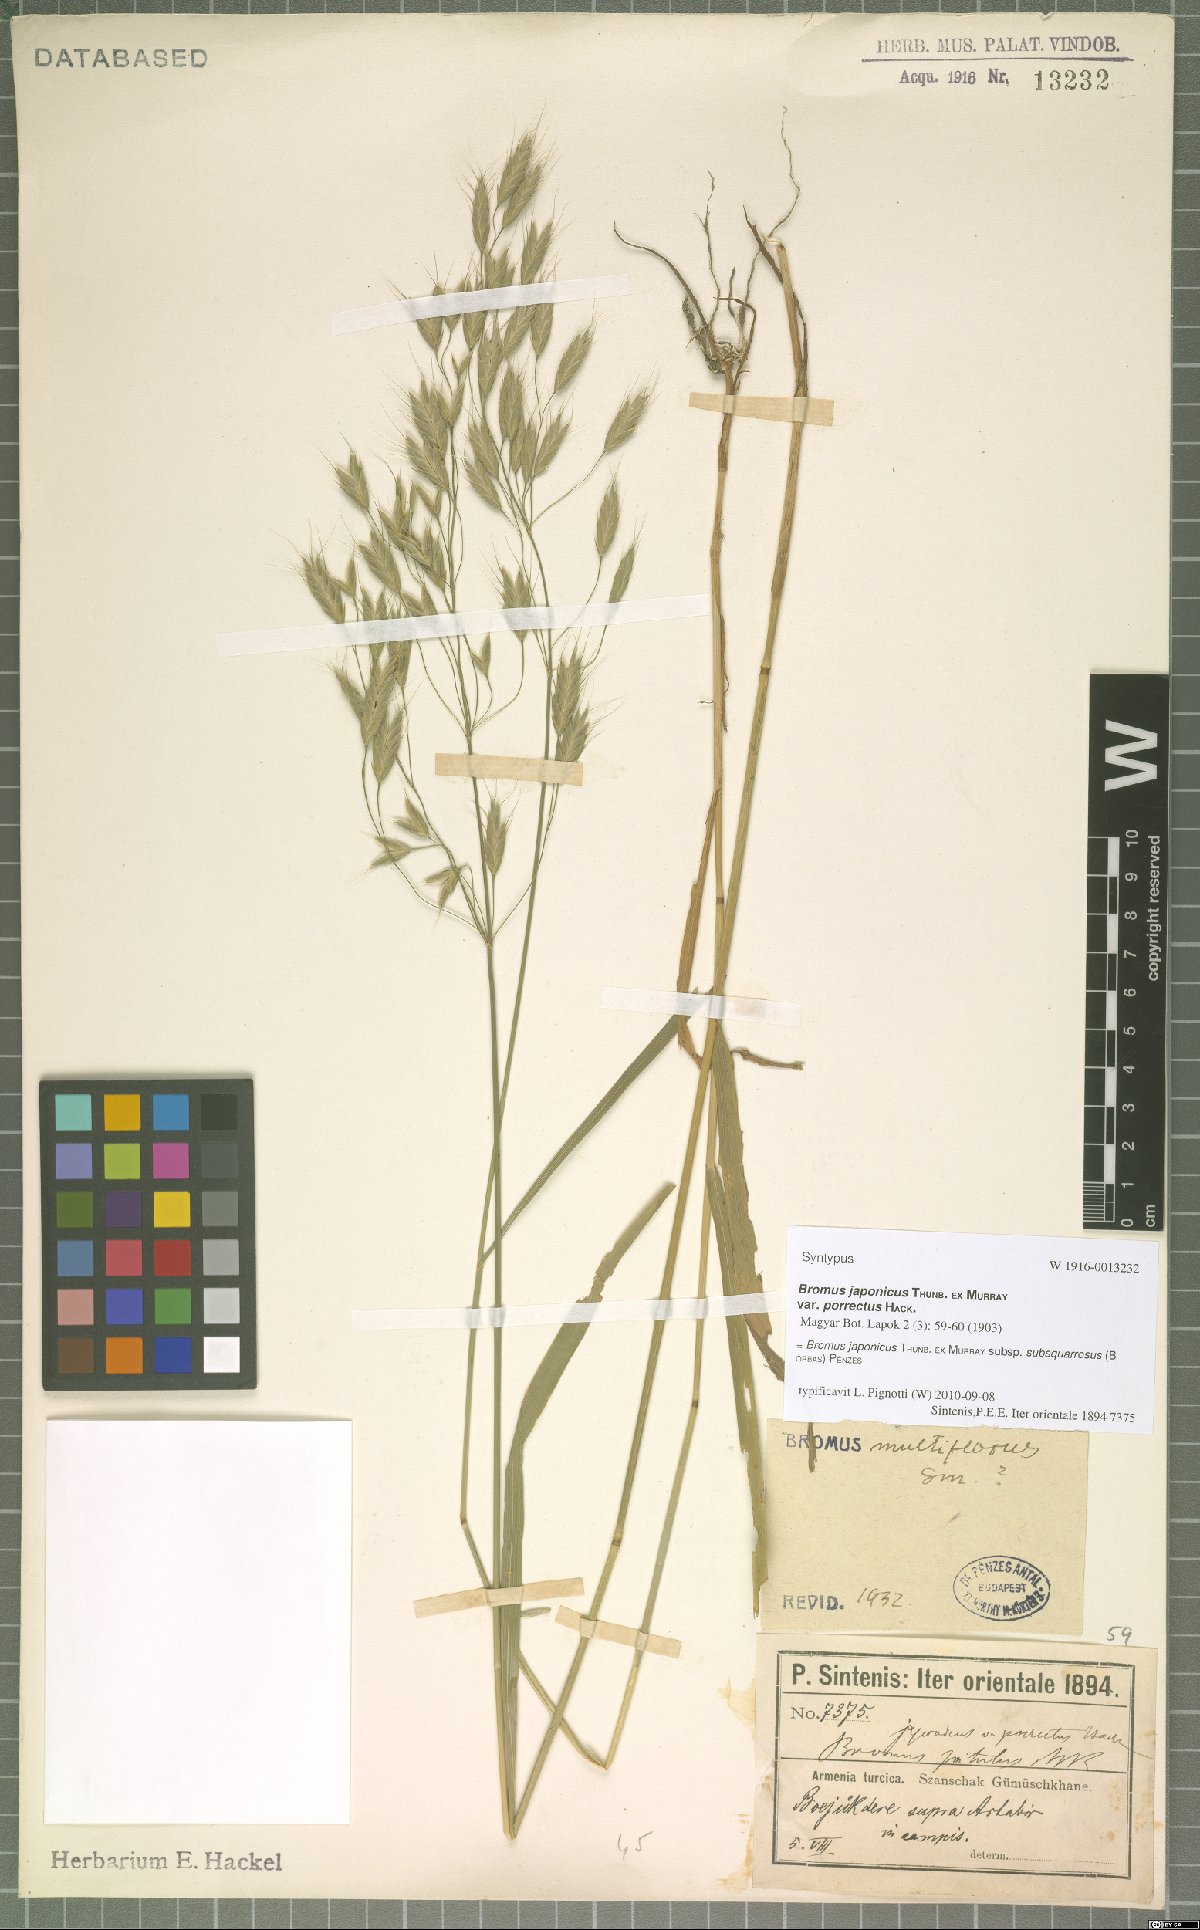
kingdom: Plantae
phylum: Tracheophyta
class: Liliopsida
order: Poales
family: Poaceae
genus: Bromus
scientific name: Bromus japonicus
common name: Japanese brome
